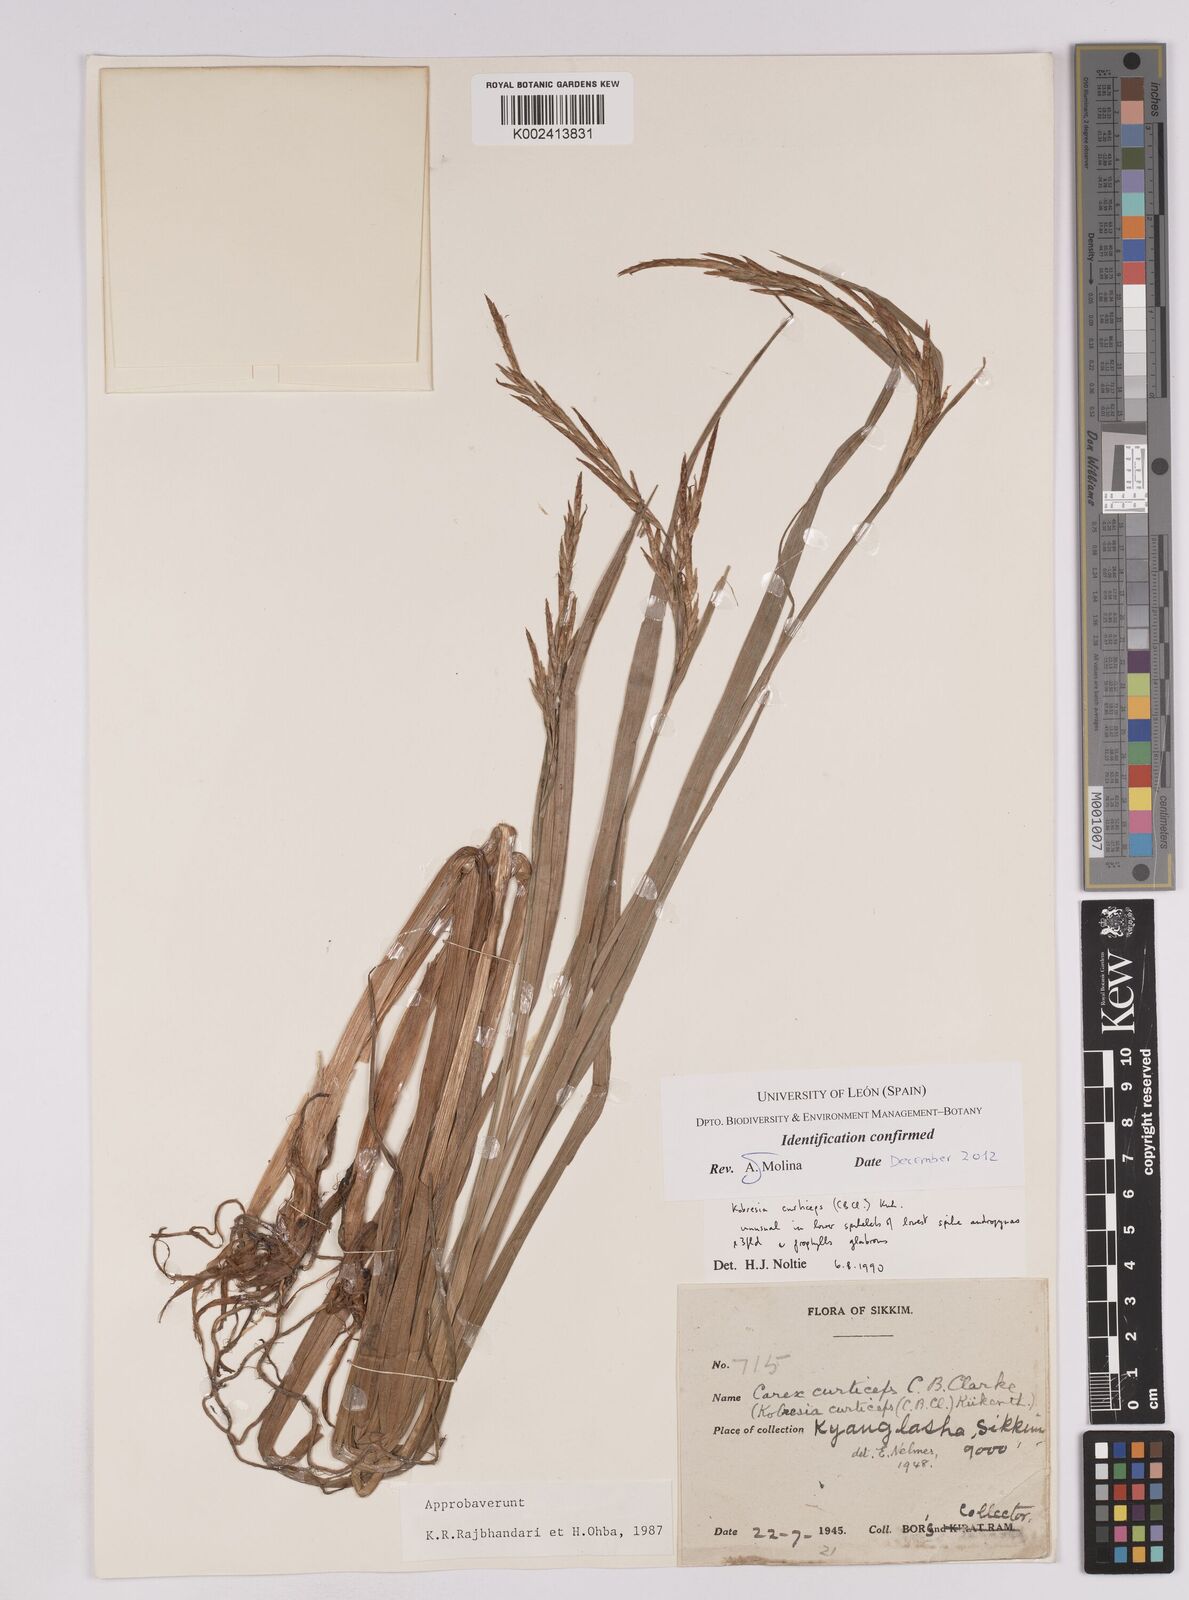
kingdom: Plantae
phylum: Tracheophyta
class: Liliopsida
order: Poales
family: Cyperaceae
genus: Carex
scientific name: Carex curticeps
